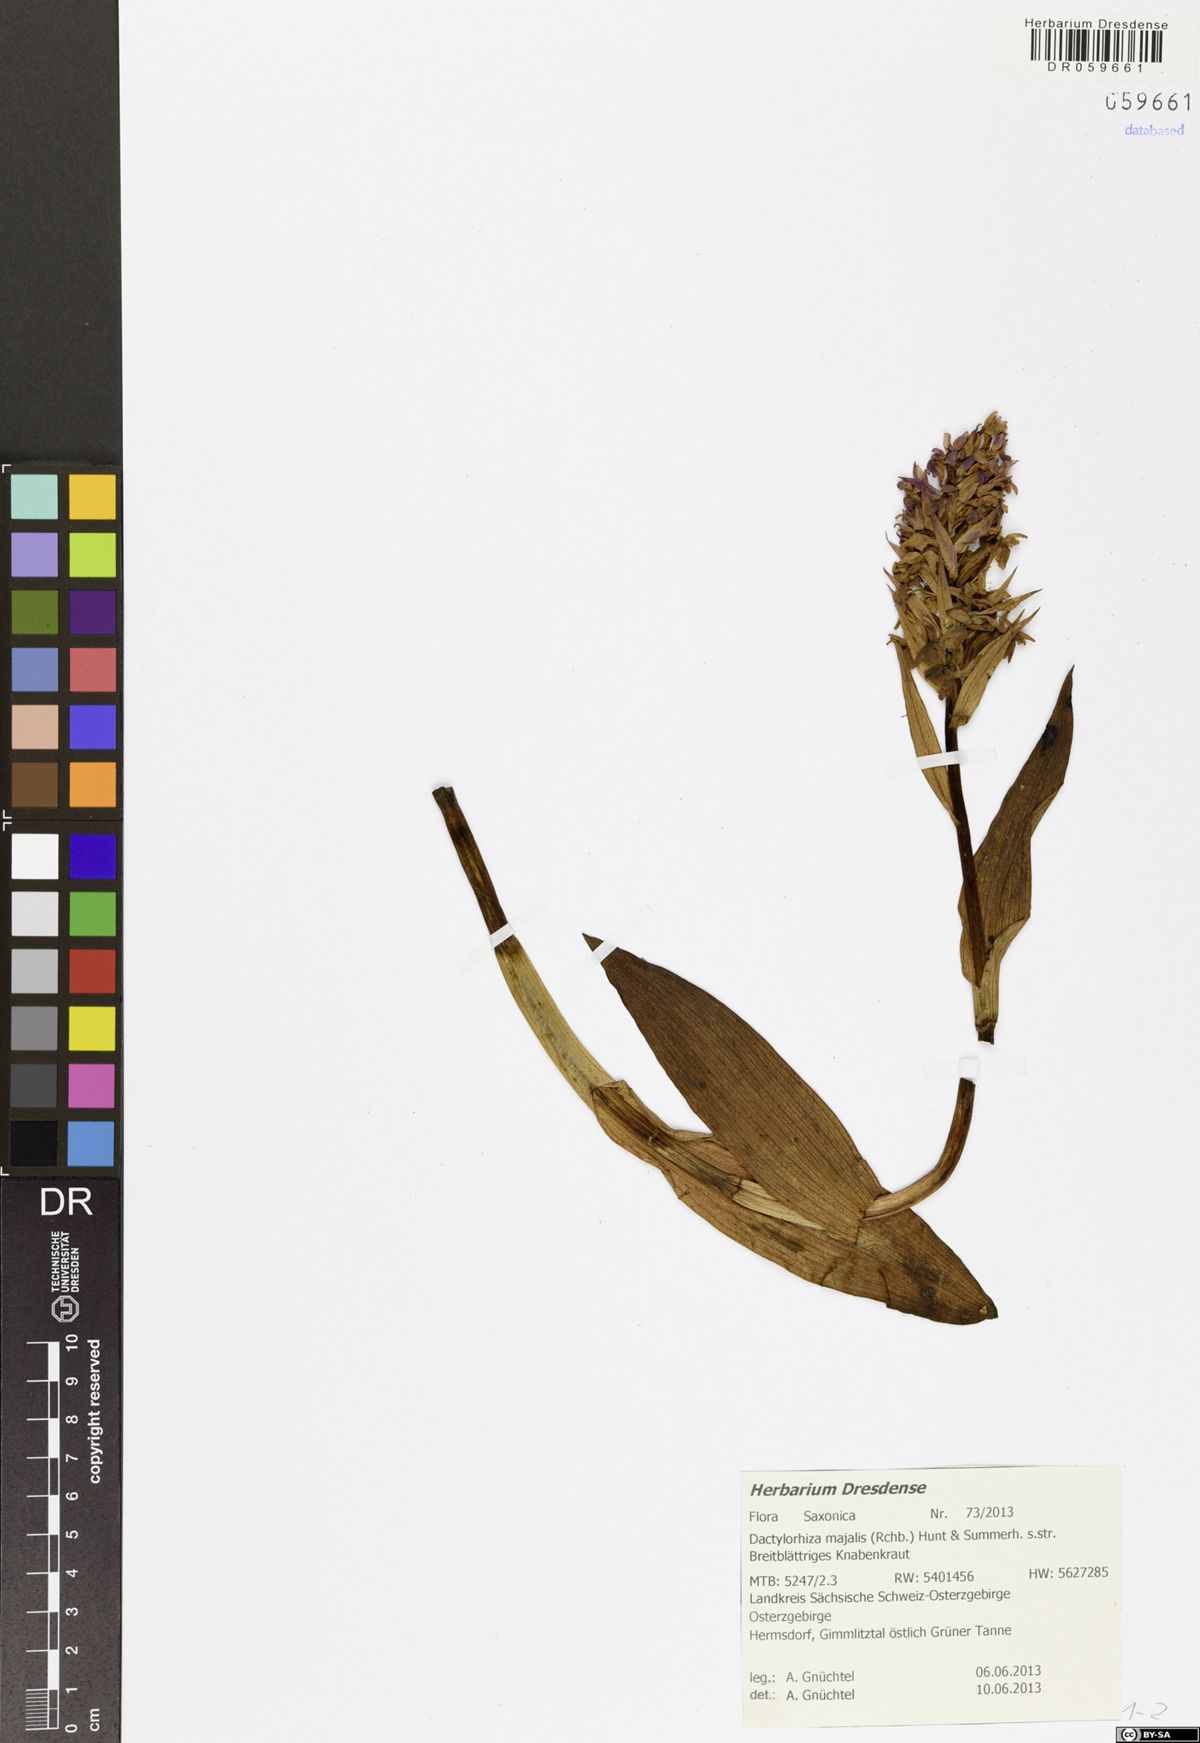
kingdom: Plantae
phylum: Tracheophyta
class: Liliopsida
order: Asparagales
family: Orchidaceae
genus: Dactylorhiza
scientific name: Dactylorhiza majalis
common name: Marsh orchid
